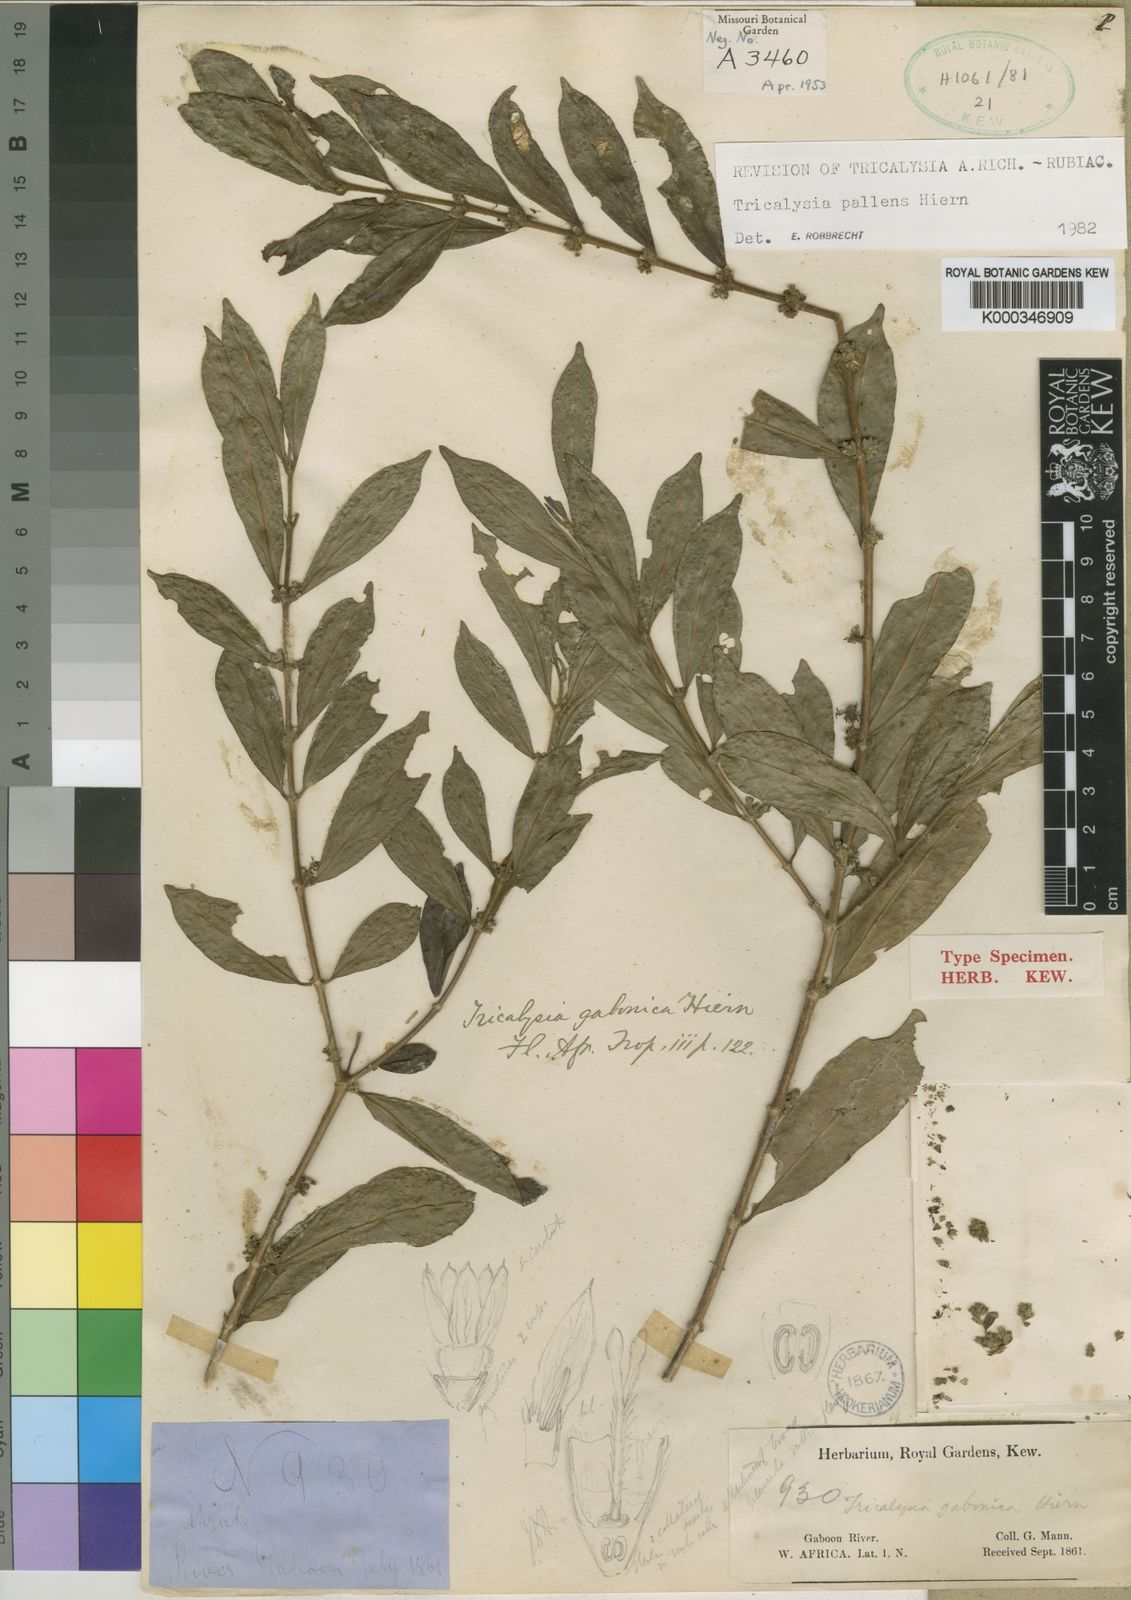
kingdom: Plantae
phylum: Tracheophyta
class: Magnoliopsida
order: Gentianales
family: Rubiaceae
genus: Tricalysia
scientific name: Tricalysia pallens
